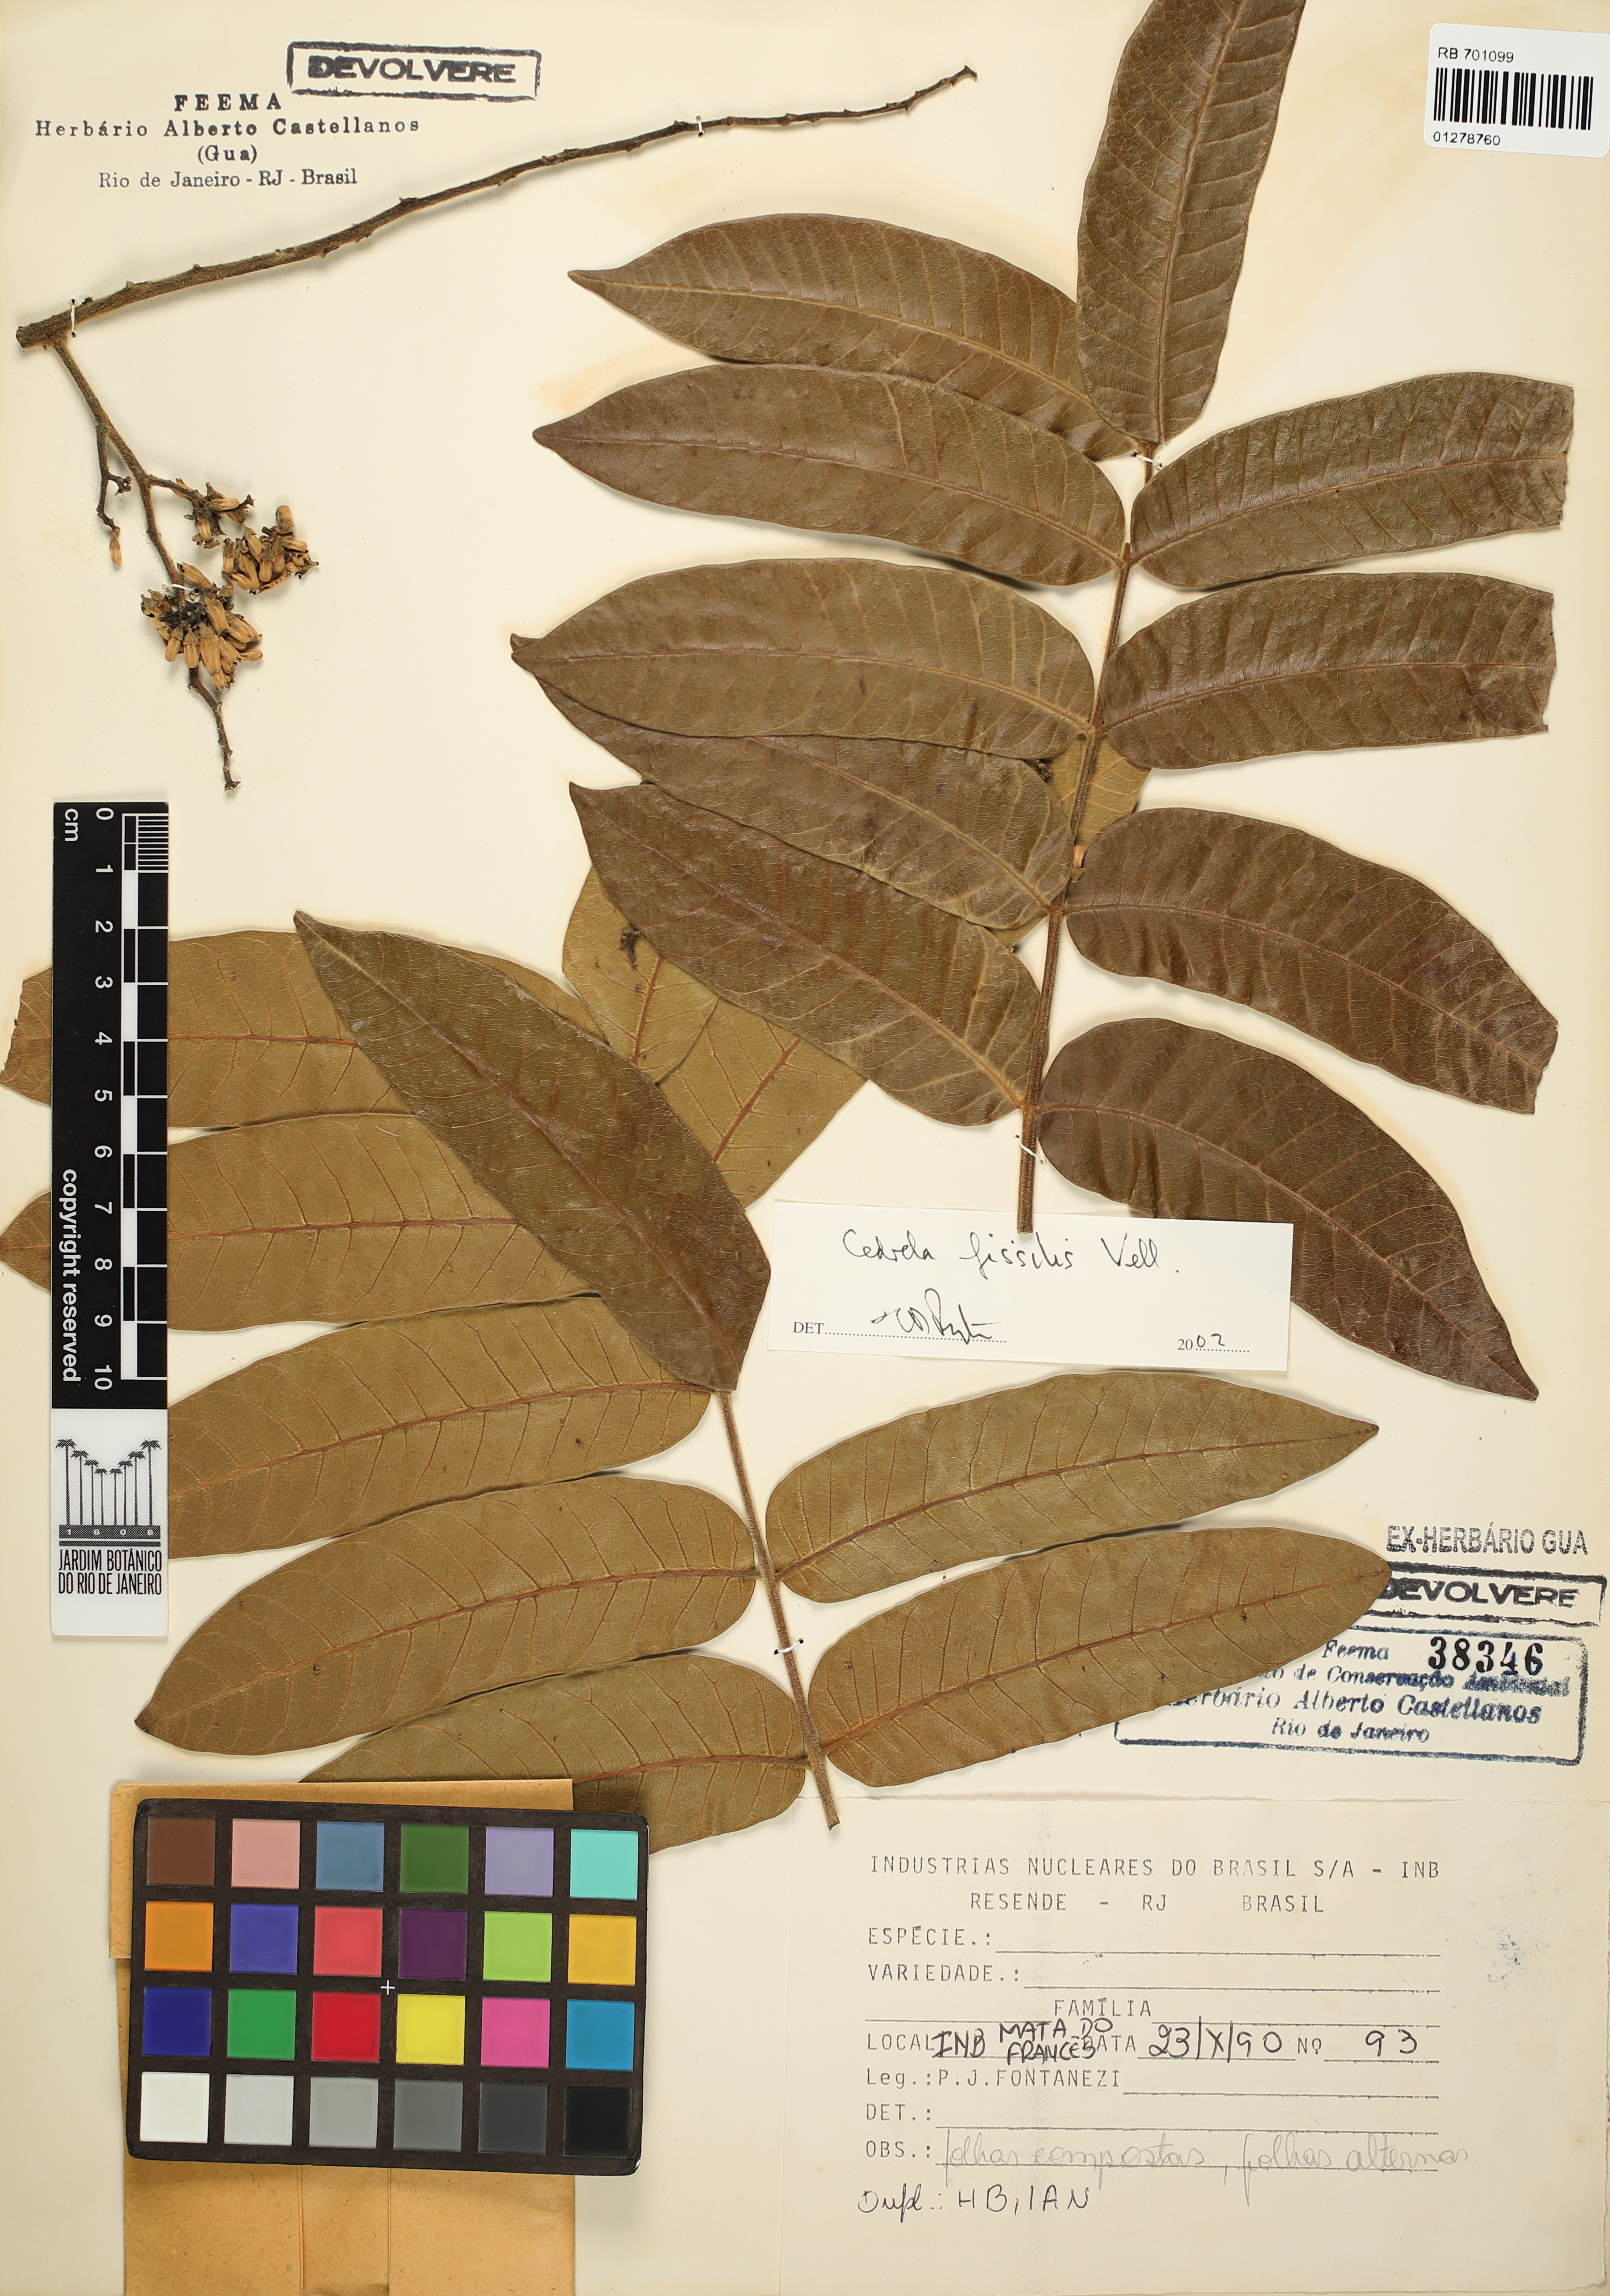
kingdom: Plantae
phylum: Tracheophyta
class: Magnoliopsida
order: Sapindales
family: Meliaceae
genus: Cedrela
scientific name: Cedrela fissilis
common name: Argentine cedar
